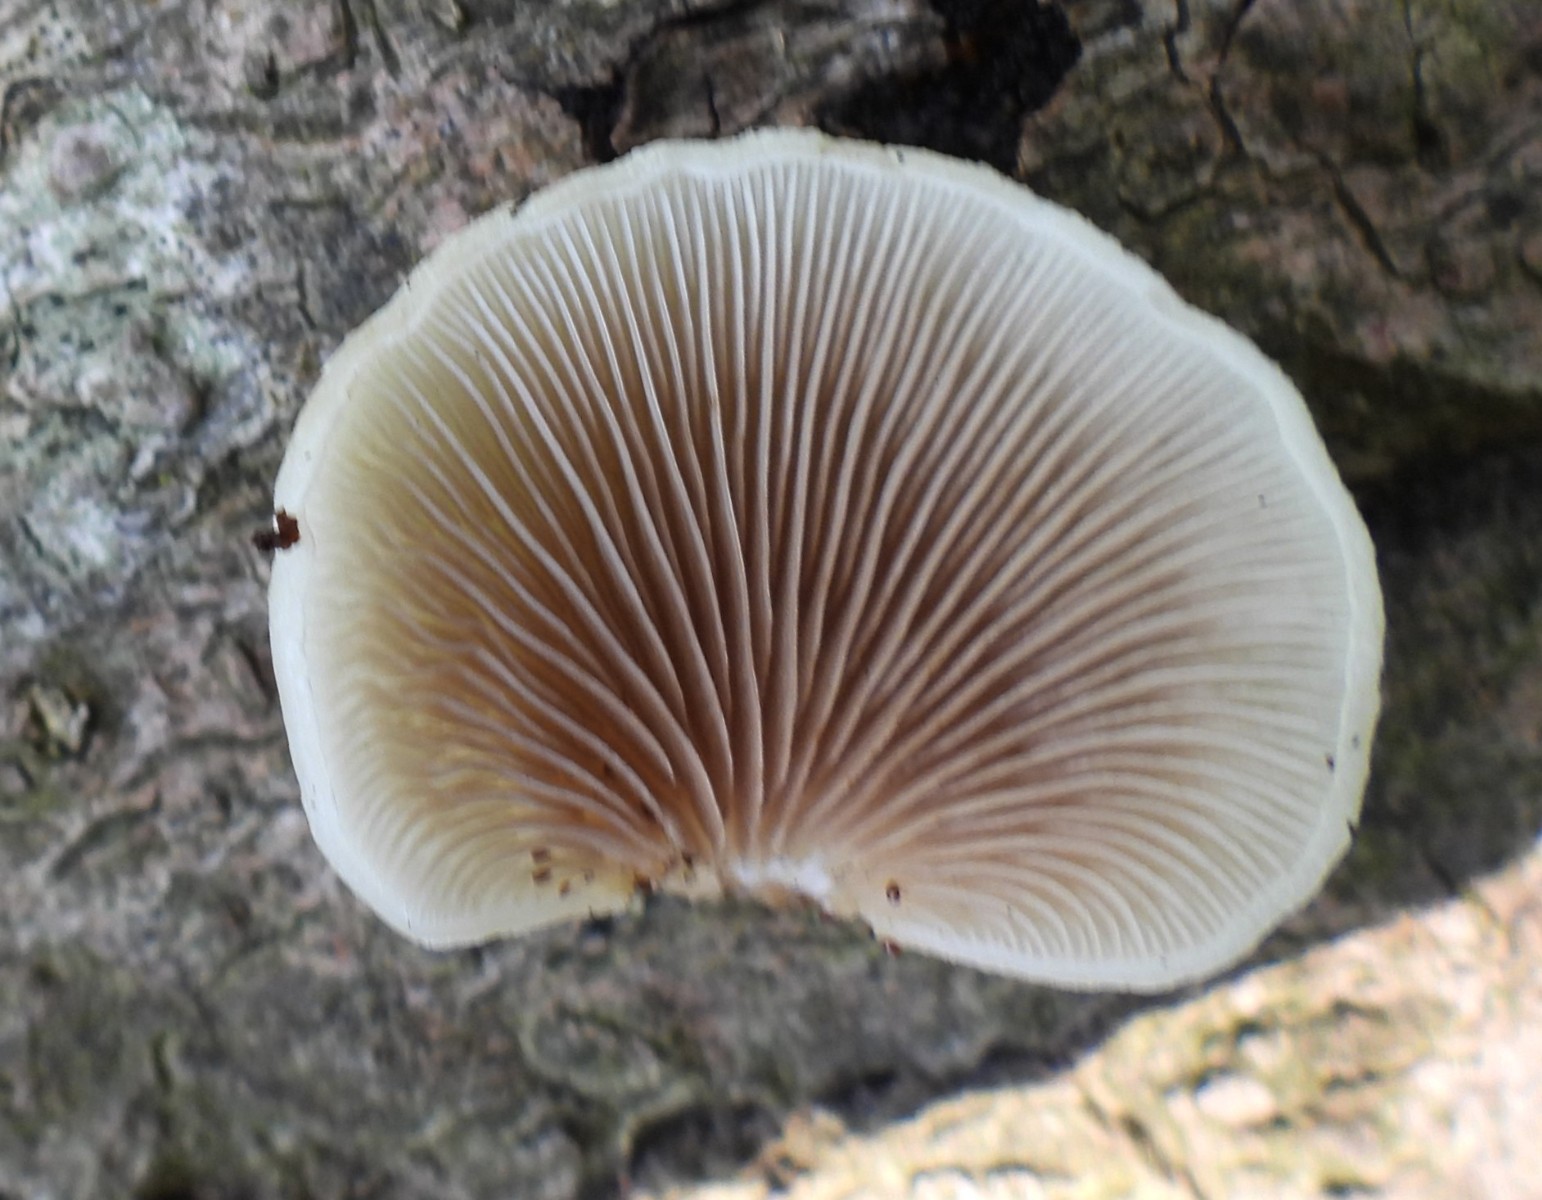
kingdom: Fungi
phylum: Basidiomycota
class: Agaricomycetes
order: Agaricales
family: Crepidotaceae
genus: Crepidotus
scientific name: Crepidotus mollis
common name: blød muslingesvamp
